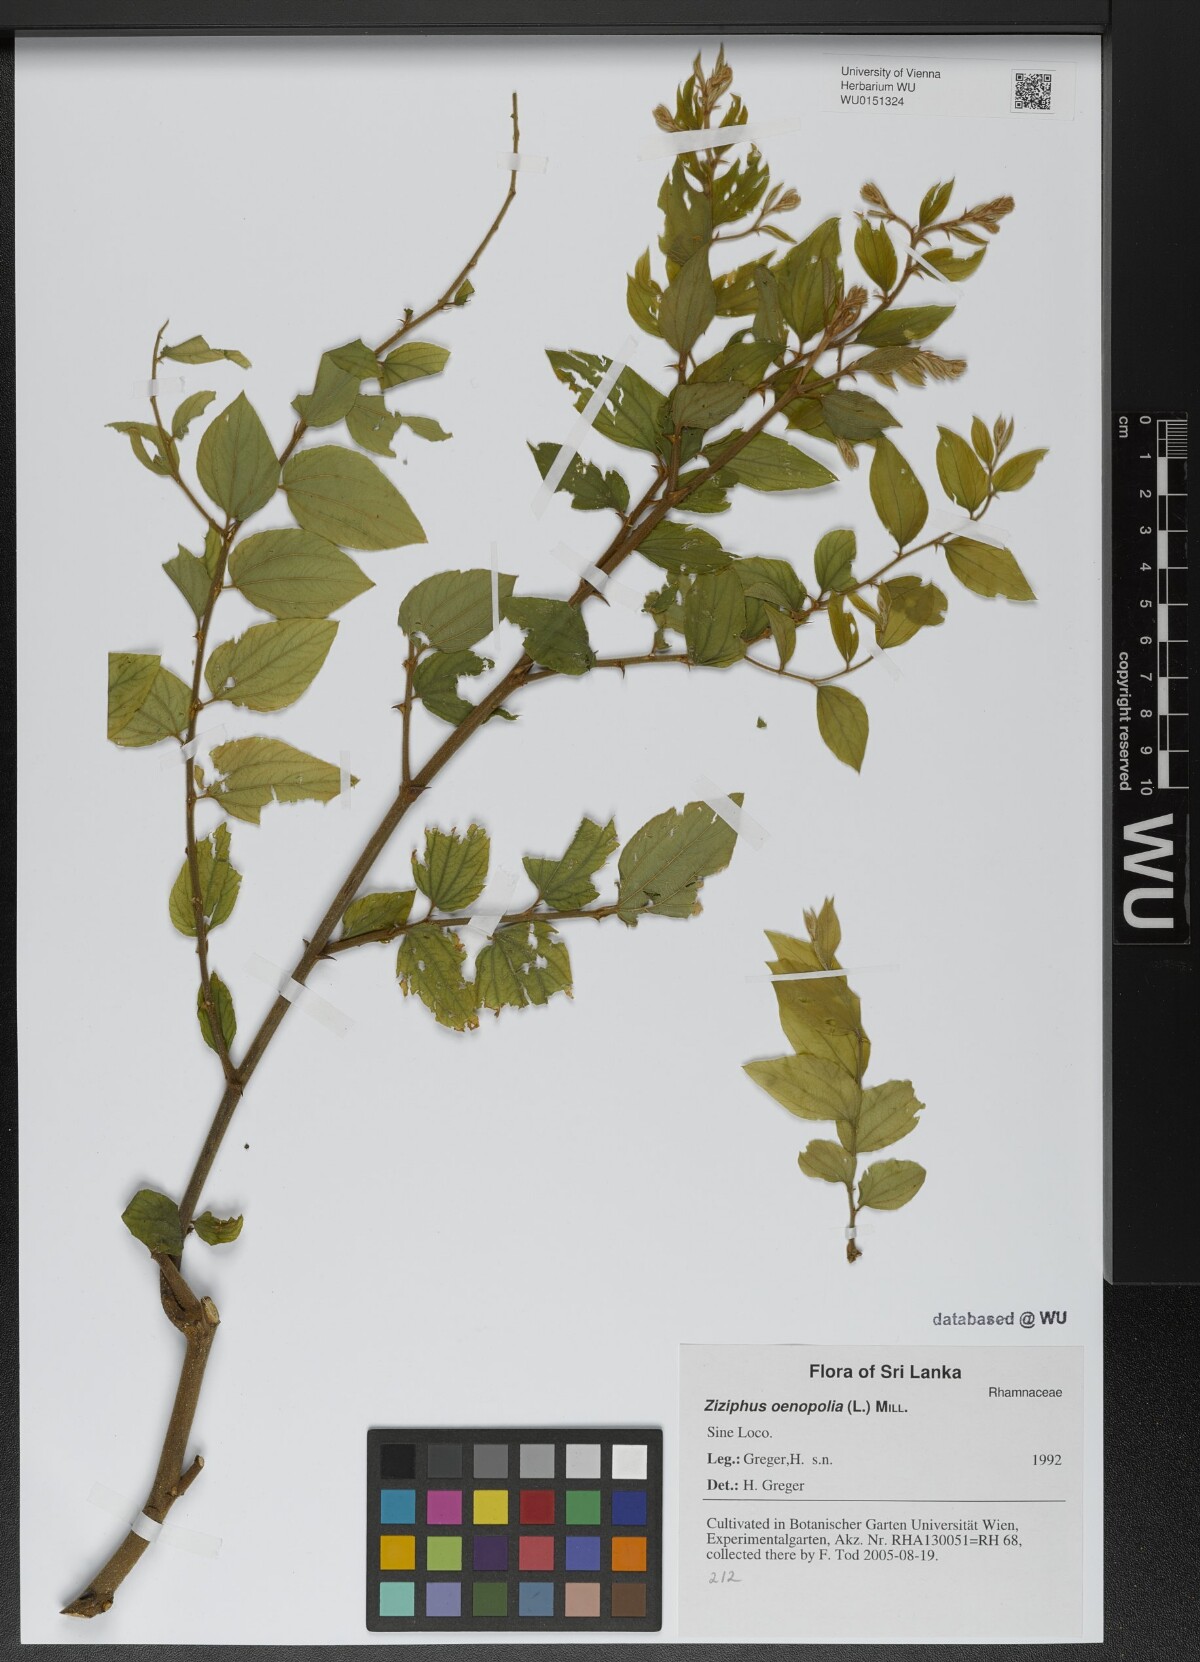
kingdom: Plantae
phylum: Tracheophyta
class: Magnoliopsida
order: Rosales
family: Rhamnaceae
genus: Ziziphus
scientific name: Ziziphus oenopolia
